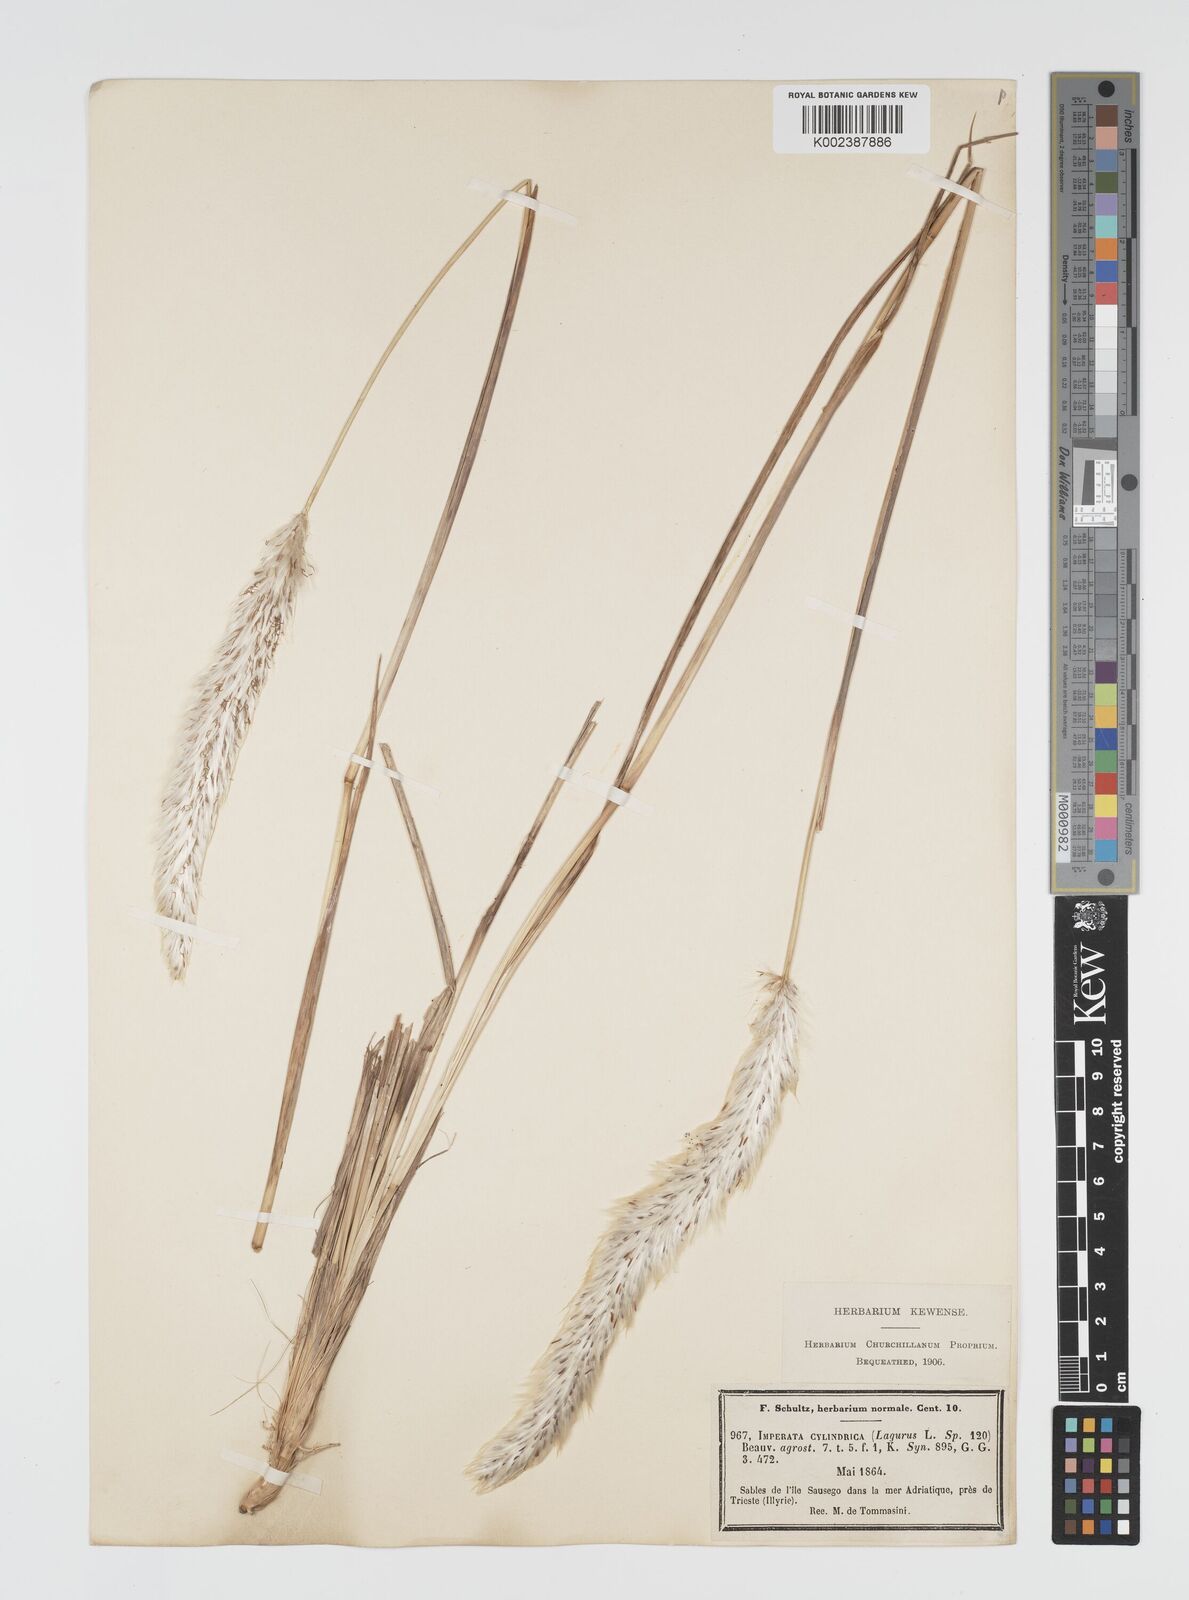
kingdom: Plantae
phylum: Tracheophyta
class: Liliopsida
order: Poales
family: Poaceae
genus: Imperata
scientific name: Imperata cylindrica
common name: Cogongrass
